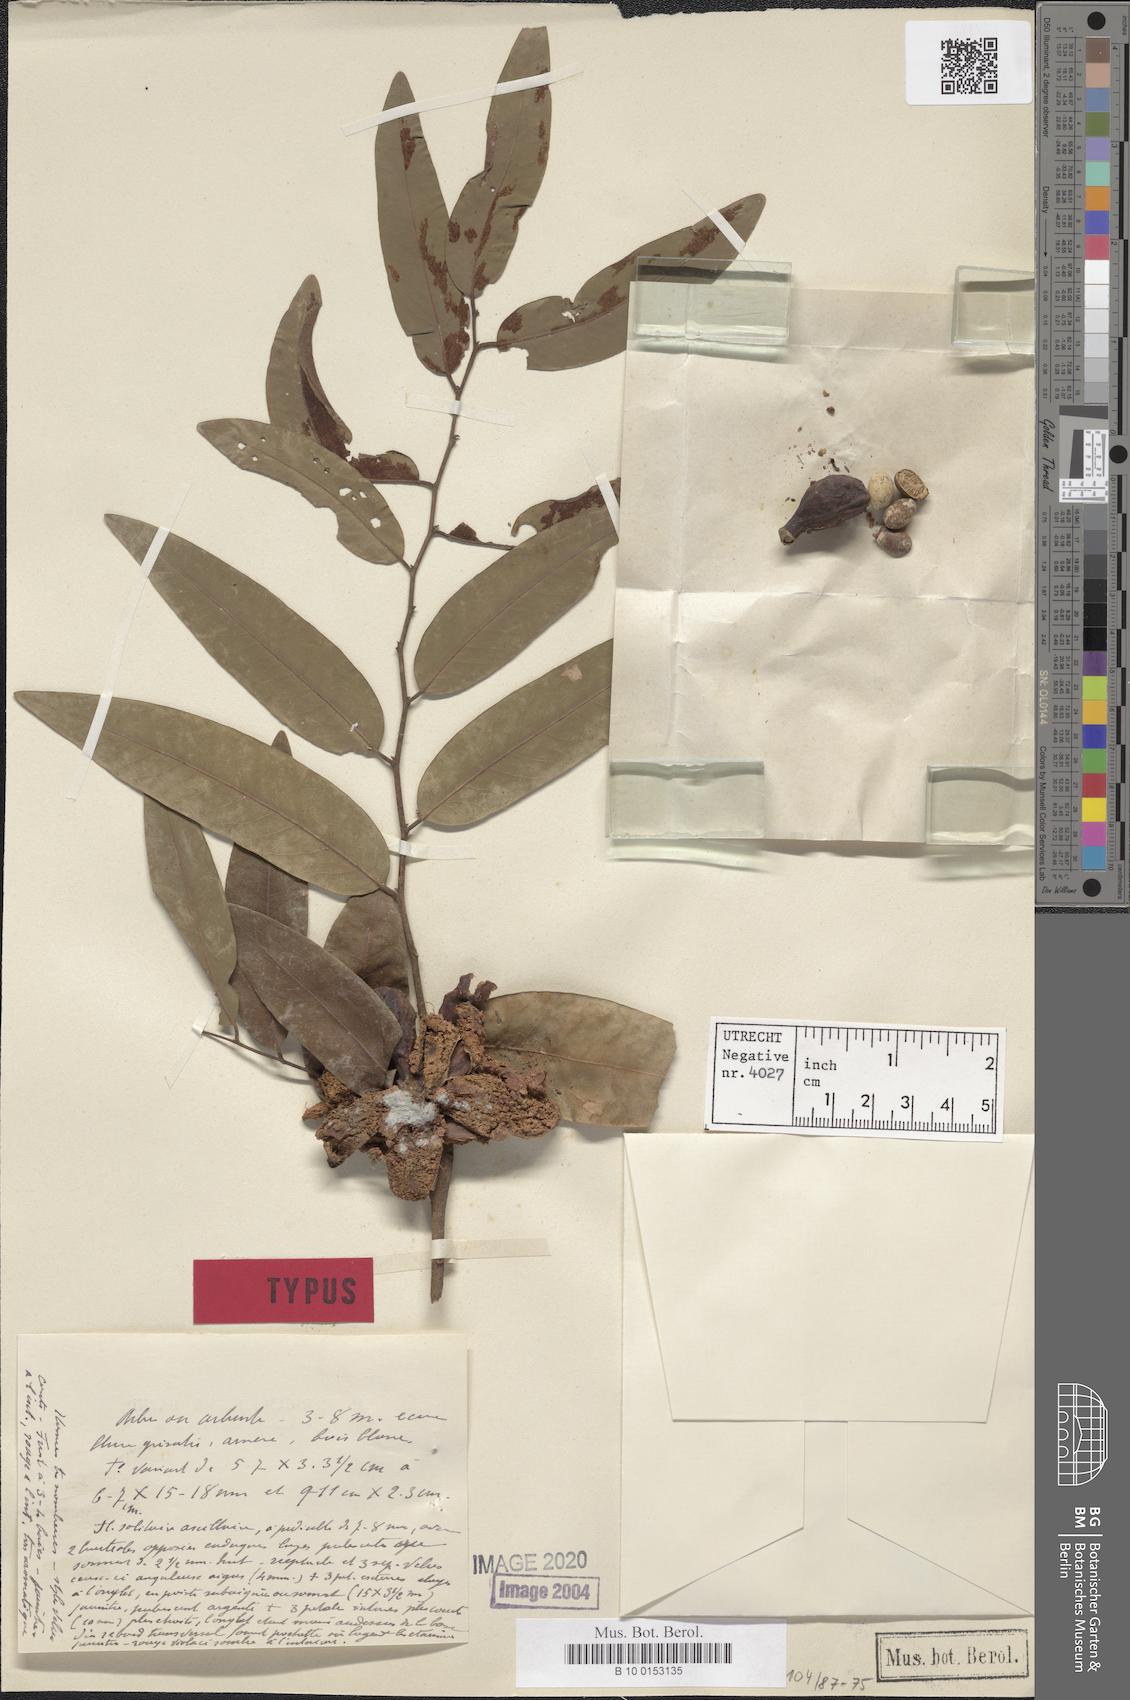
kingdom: Plantae
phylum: Tracheophyta
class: Magnoliopsida
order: Magnoliales
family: Annonaceae
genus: Xylopia
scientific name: Xylopia bemarivensis
